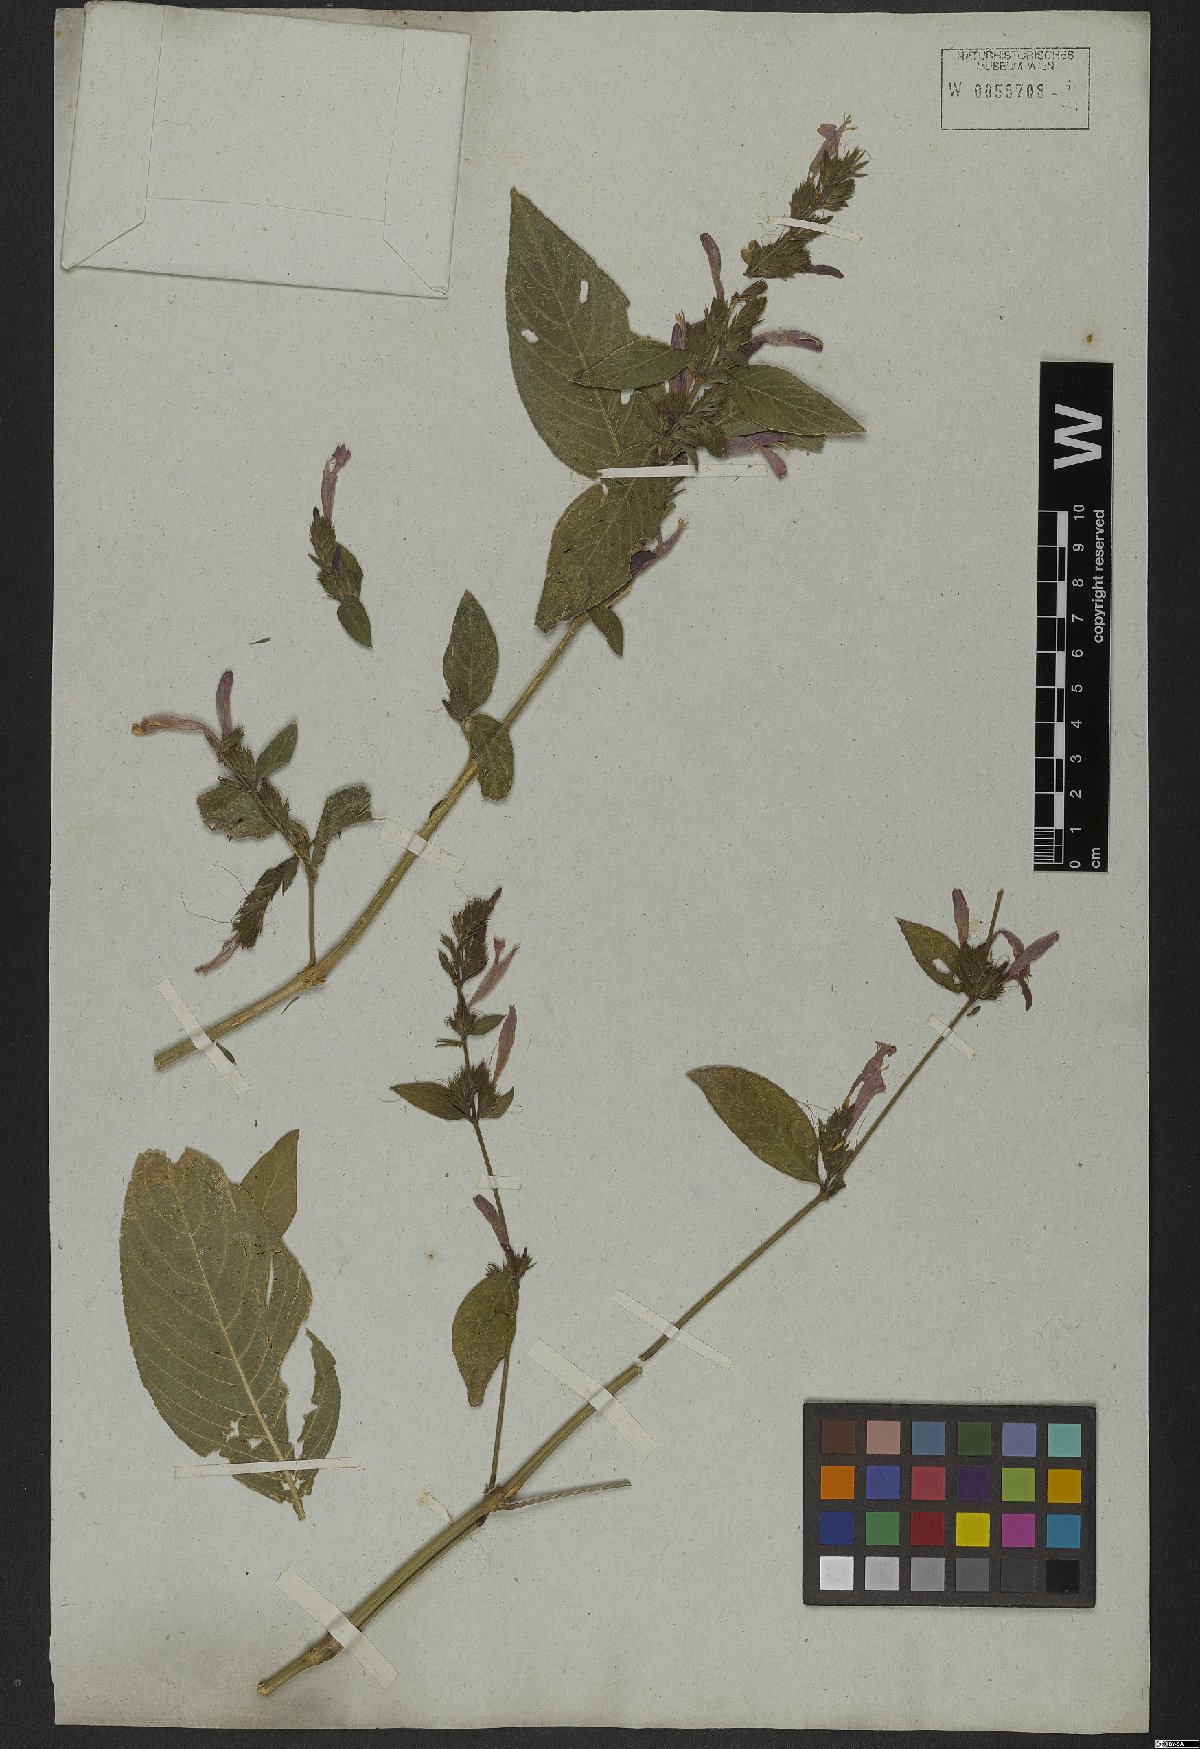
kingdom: Plantae
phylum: Tracheophyta
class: Magnoliopsida
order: Lamiales
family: Acanthaceae
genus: Justicia
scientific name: Justicia tocantina
